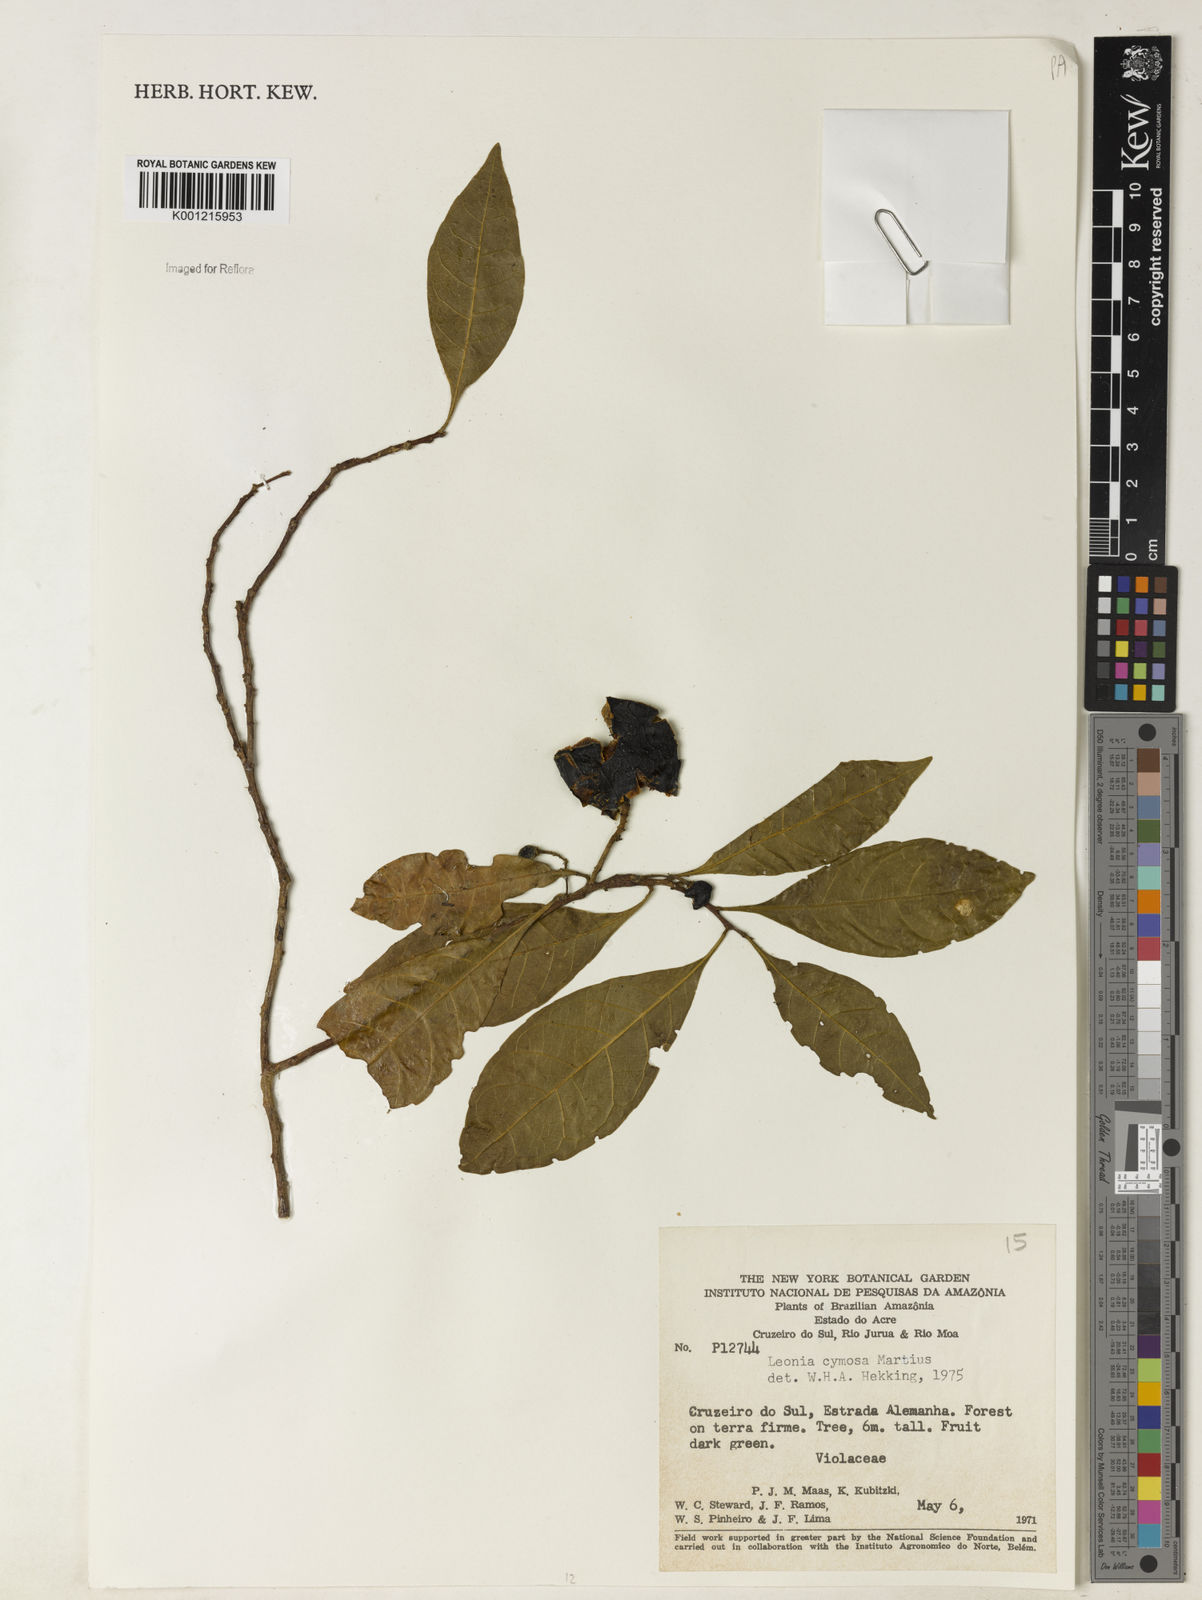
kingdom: Plantae
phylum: Tracheophyta
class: Magnoliopsida
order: Malpighiales
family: Violaceae
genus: Leonia
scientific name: Leonia cymosa
